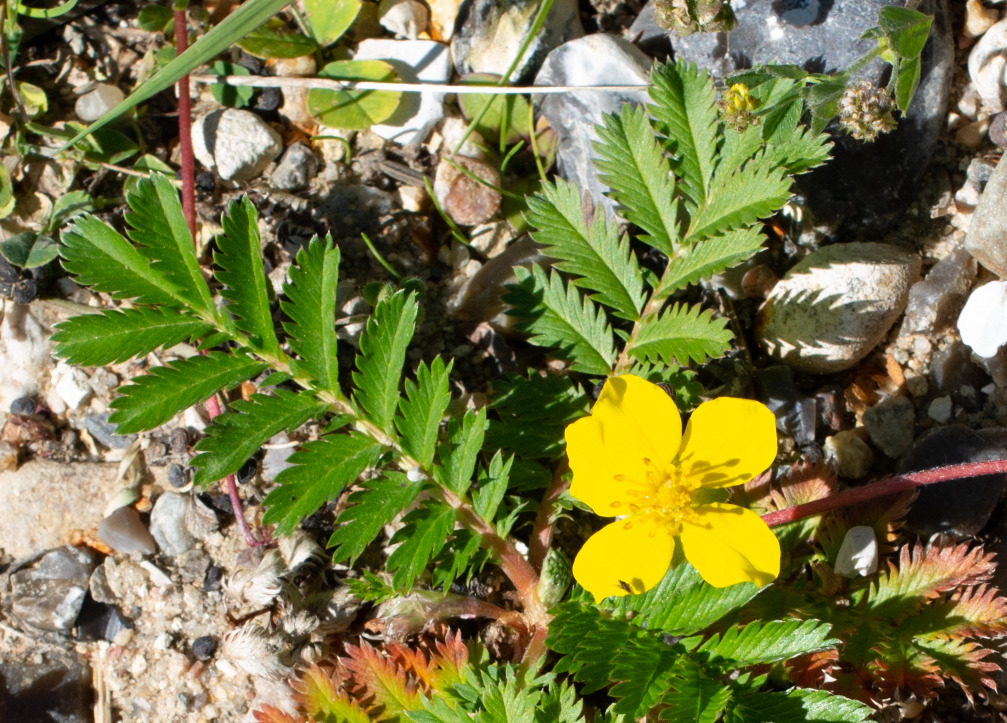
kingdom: Plantae
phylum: Tracheophyta
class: Magnoliopsida
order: Rosales
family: Rosaceae
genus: Argentina
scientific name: Argentina anserina
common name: Gåsepotentil
